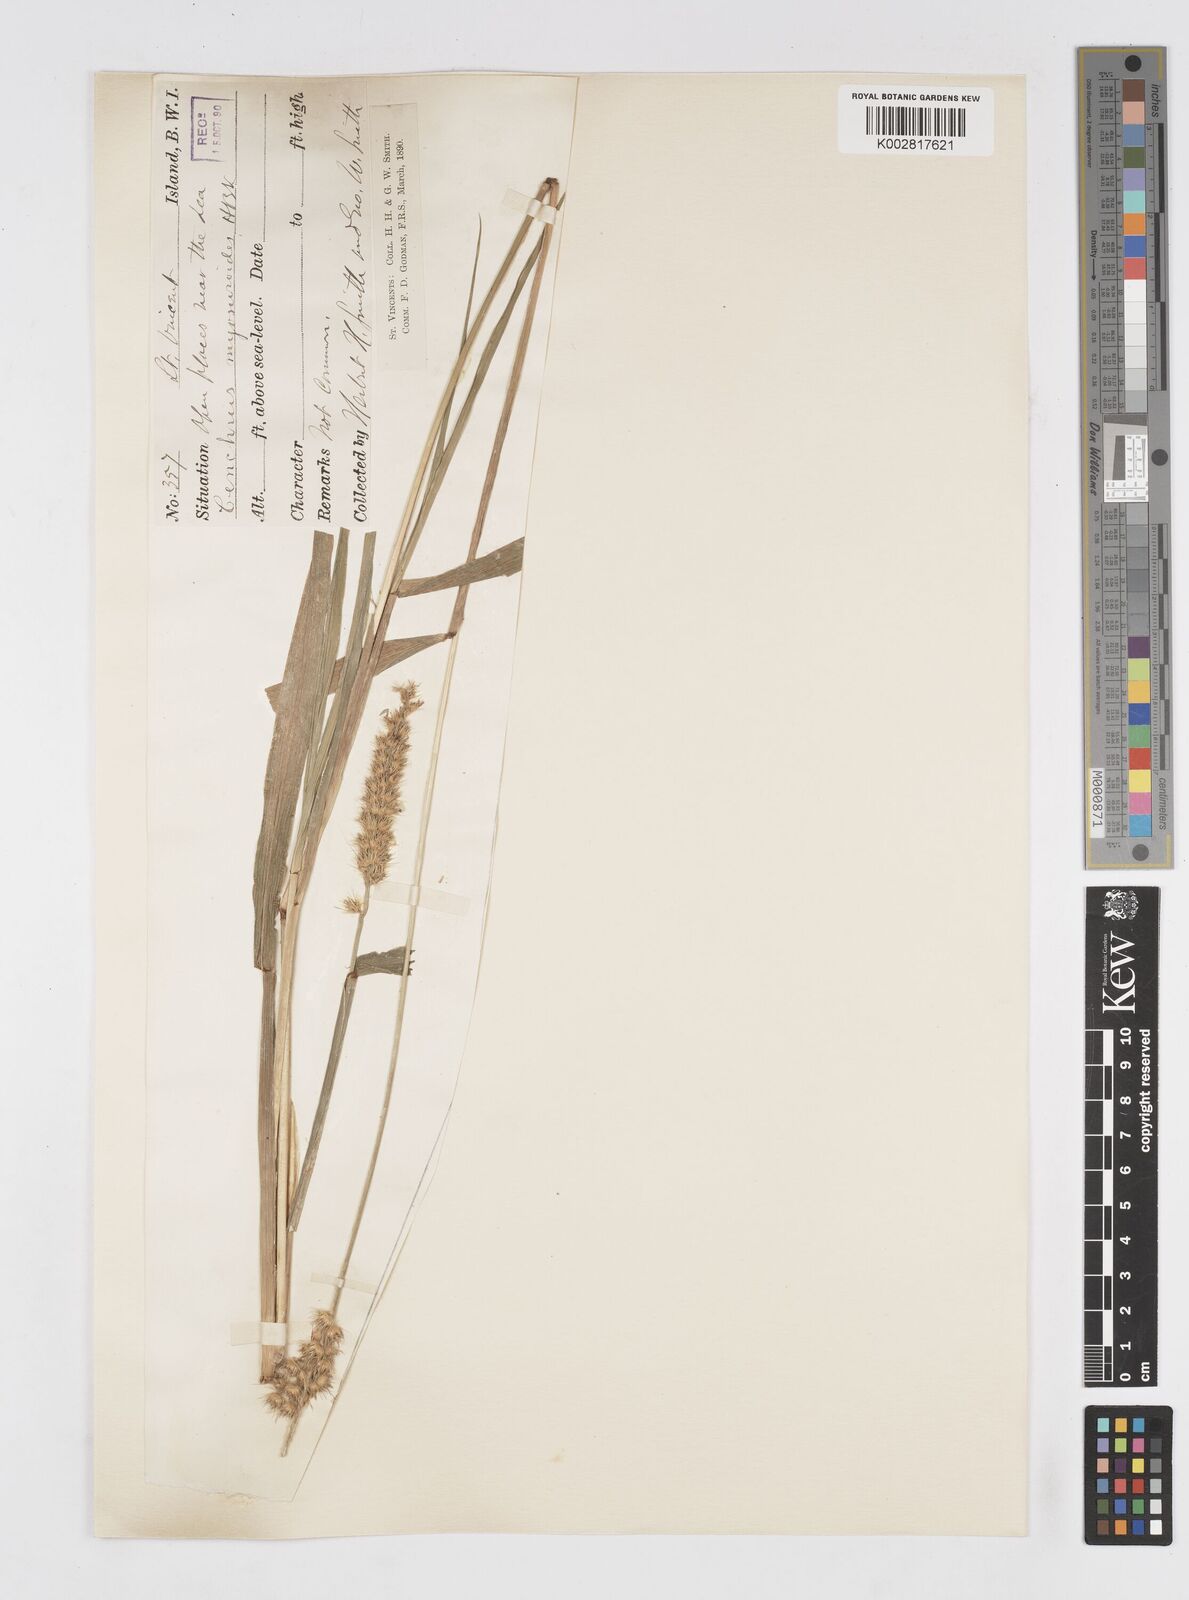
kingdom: Plantae
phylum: Tracheophyta
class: Liliopsida
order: Poales
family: Poaceae
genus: Cenchrus
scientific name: Cenchrus brownii
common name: Slim-bristle sandbur
